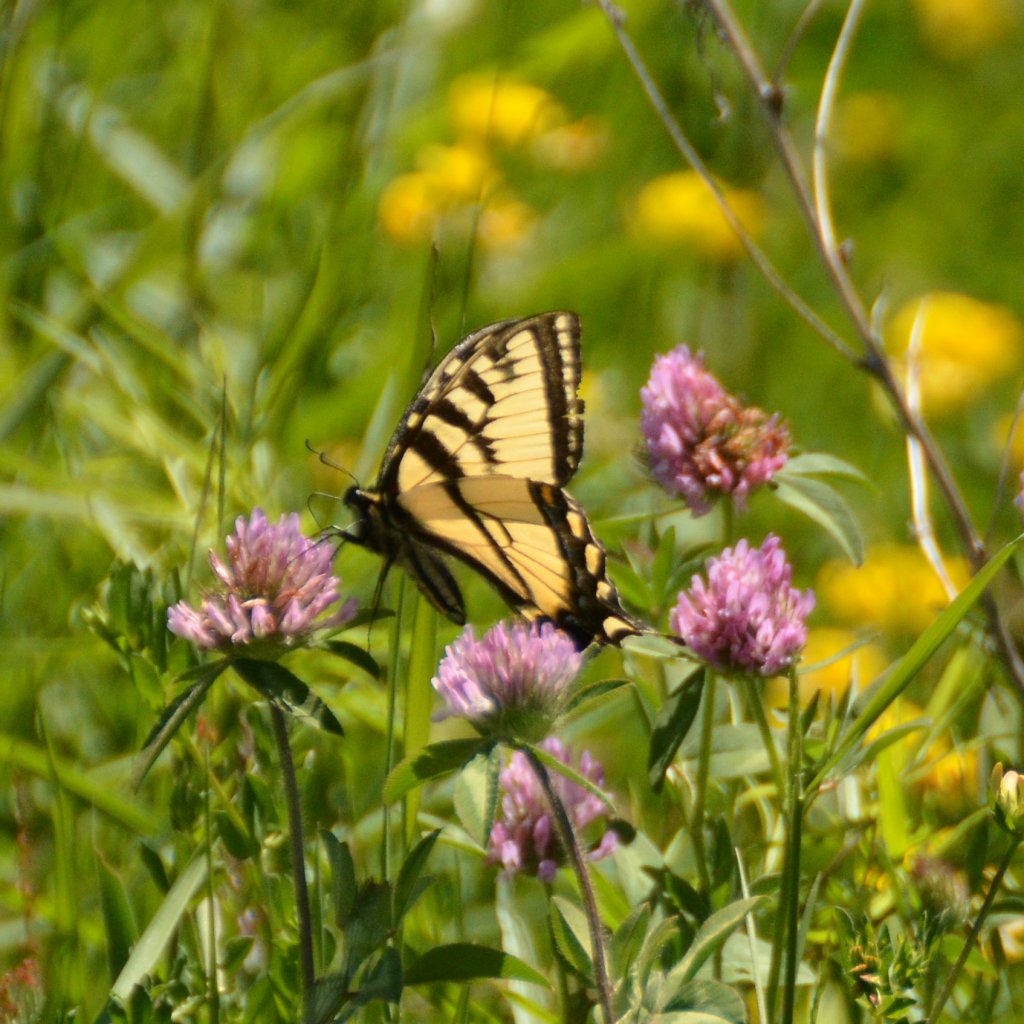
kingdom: Animalia
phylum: Arthropoda
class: Insecta
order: Lepidoptera
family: Papilionidae
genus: Pterourus
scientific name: Pterourus canadensis
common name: Canadian Tiger Swallowtail
